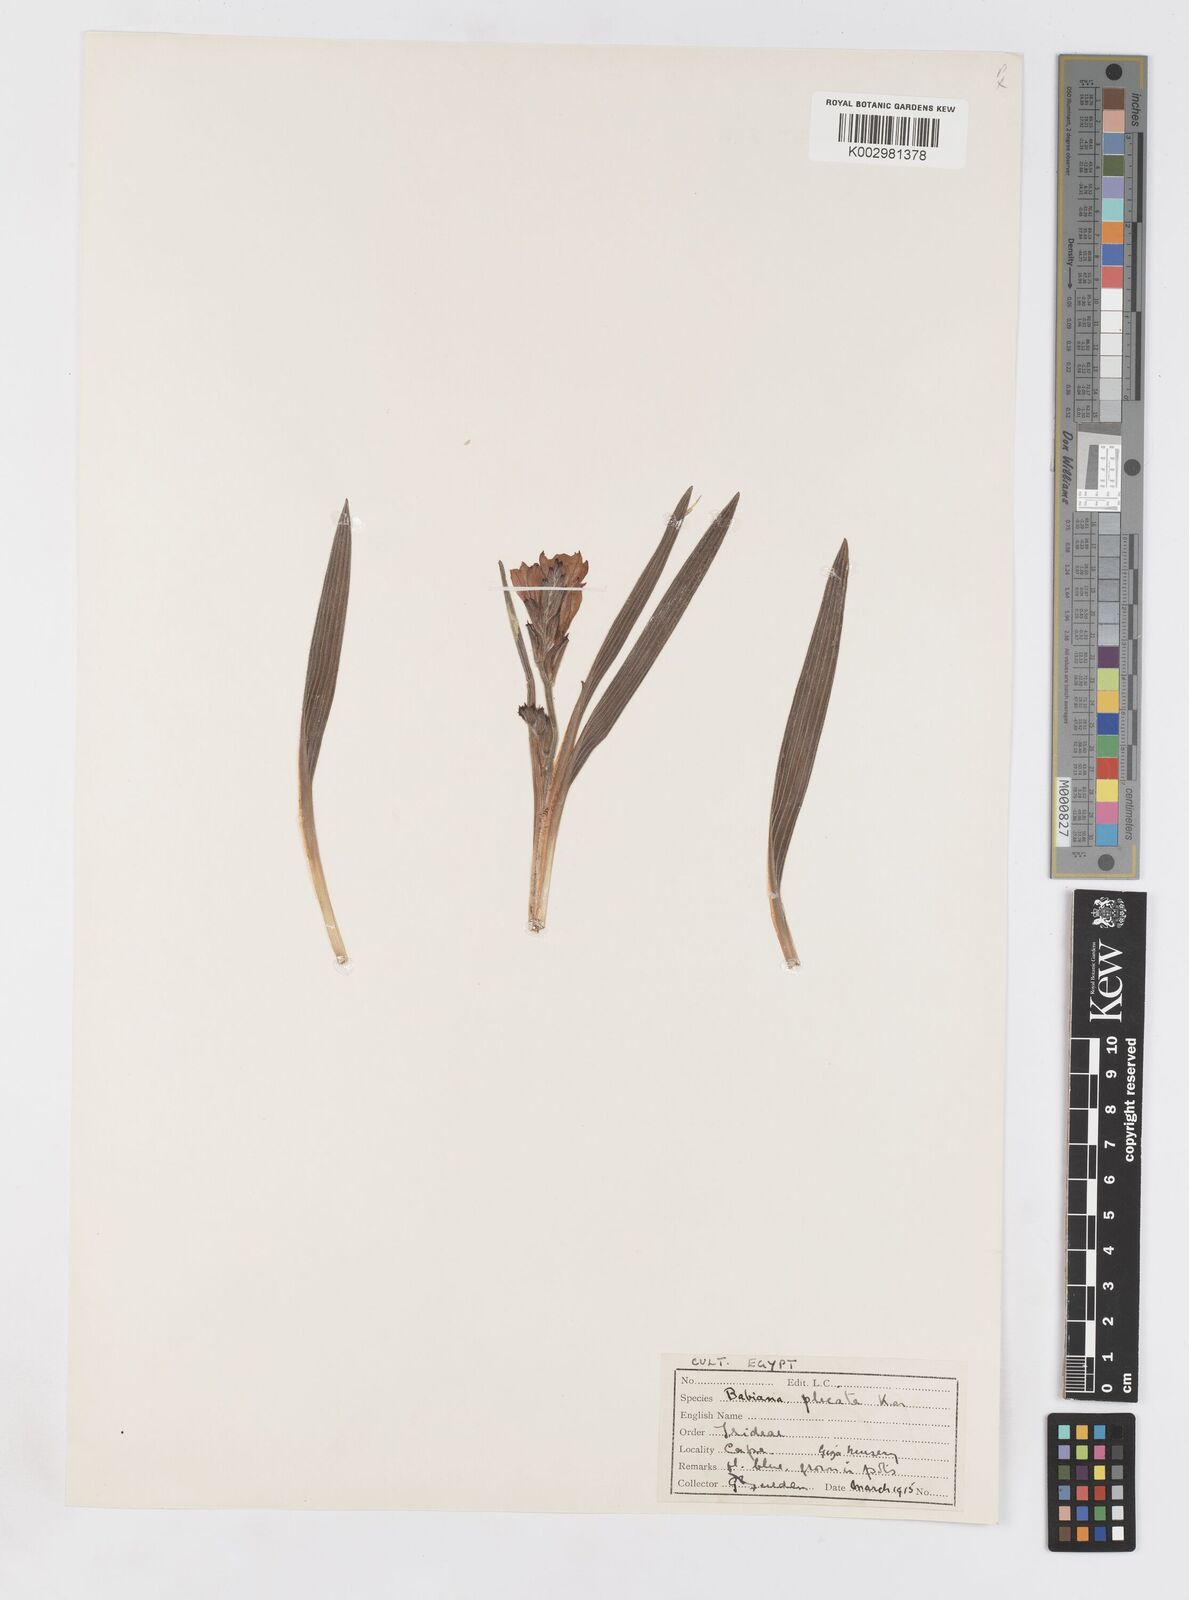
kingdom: Plantae
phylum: Tracheophyta
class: Liliopsida
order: Asparagales
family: Iridaceae
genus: Babiana
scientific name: Babiana fragrans
